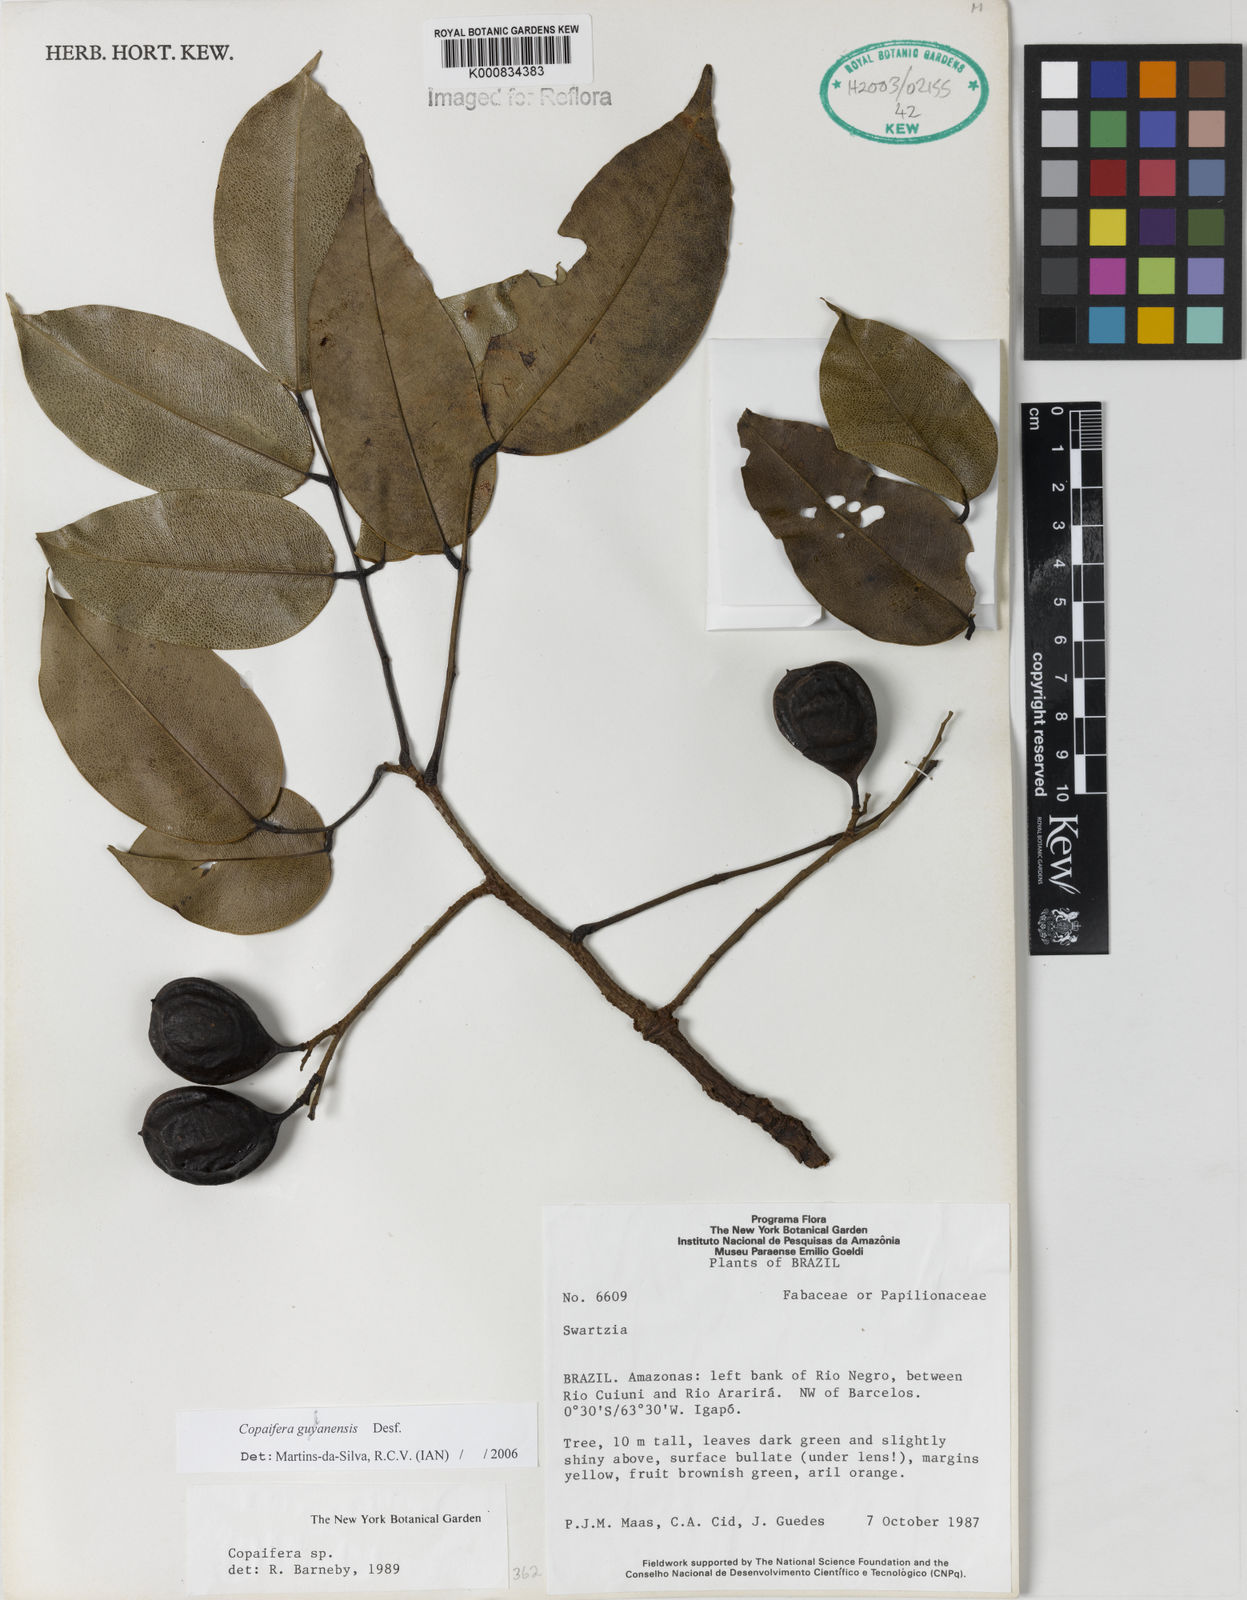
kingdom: Plantae
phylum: Tracheophyta
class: Magnoliopsida
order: Fabales
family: Fabaceae
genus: Copaifera
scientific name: Copaifera guianensis
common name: Copaiba
